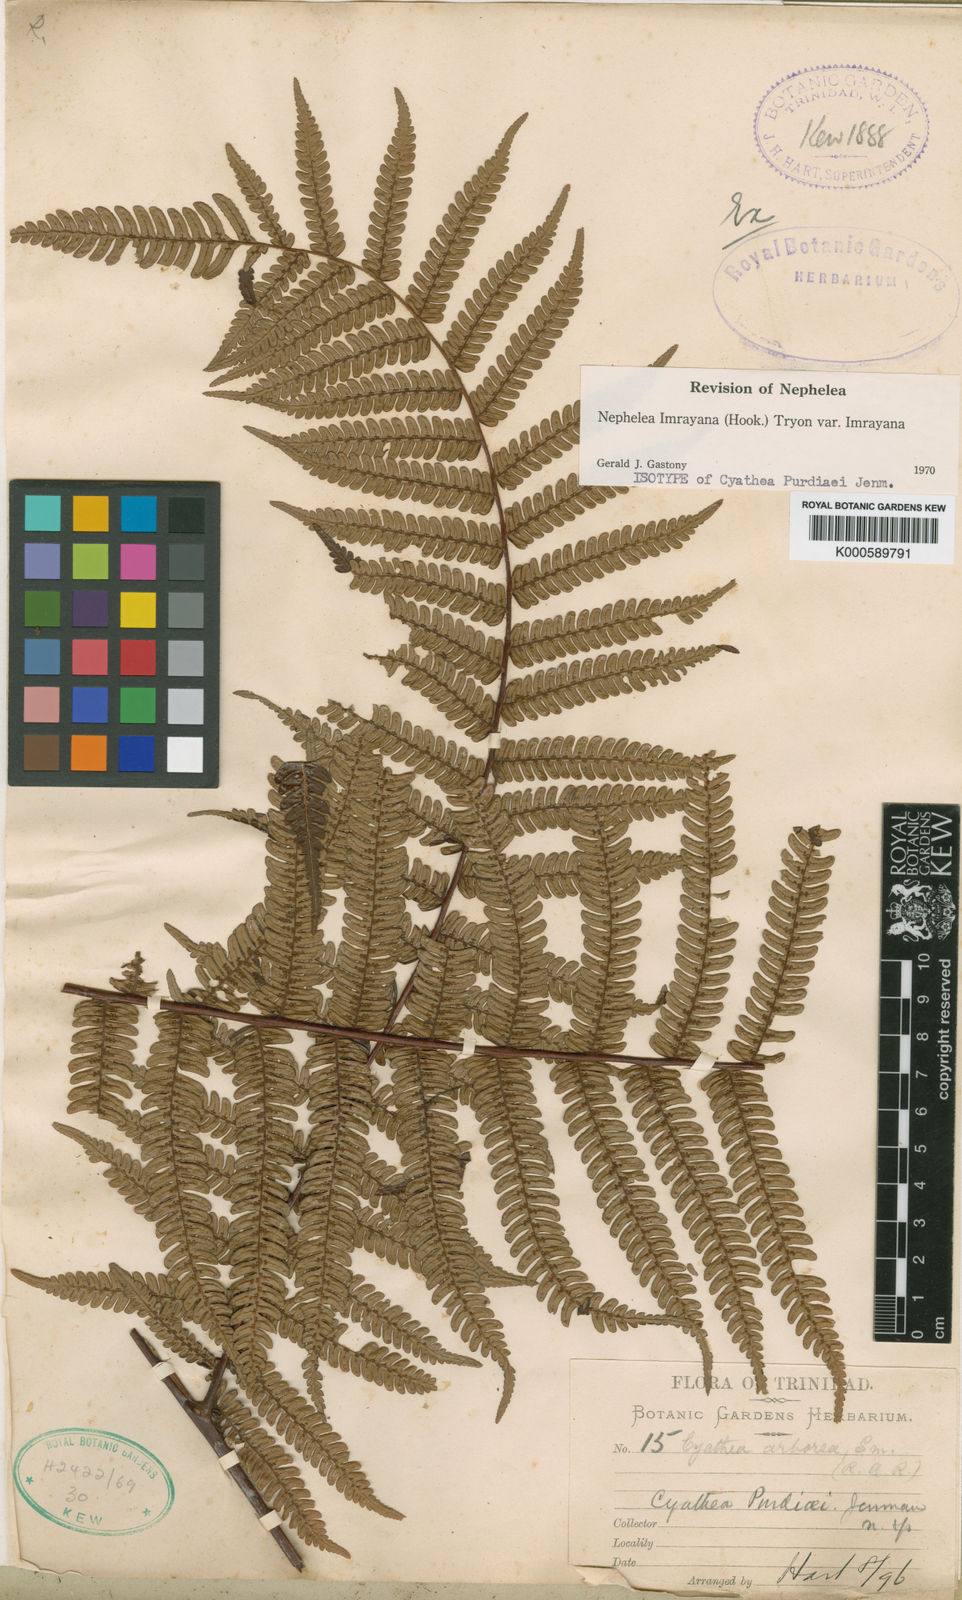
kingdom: Plantae
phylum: Tracheophyta
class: Polypodiopsida
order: Cyatheales
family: Cyatheaceae
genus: Alsophila
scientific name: Alsophila imrayana
